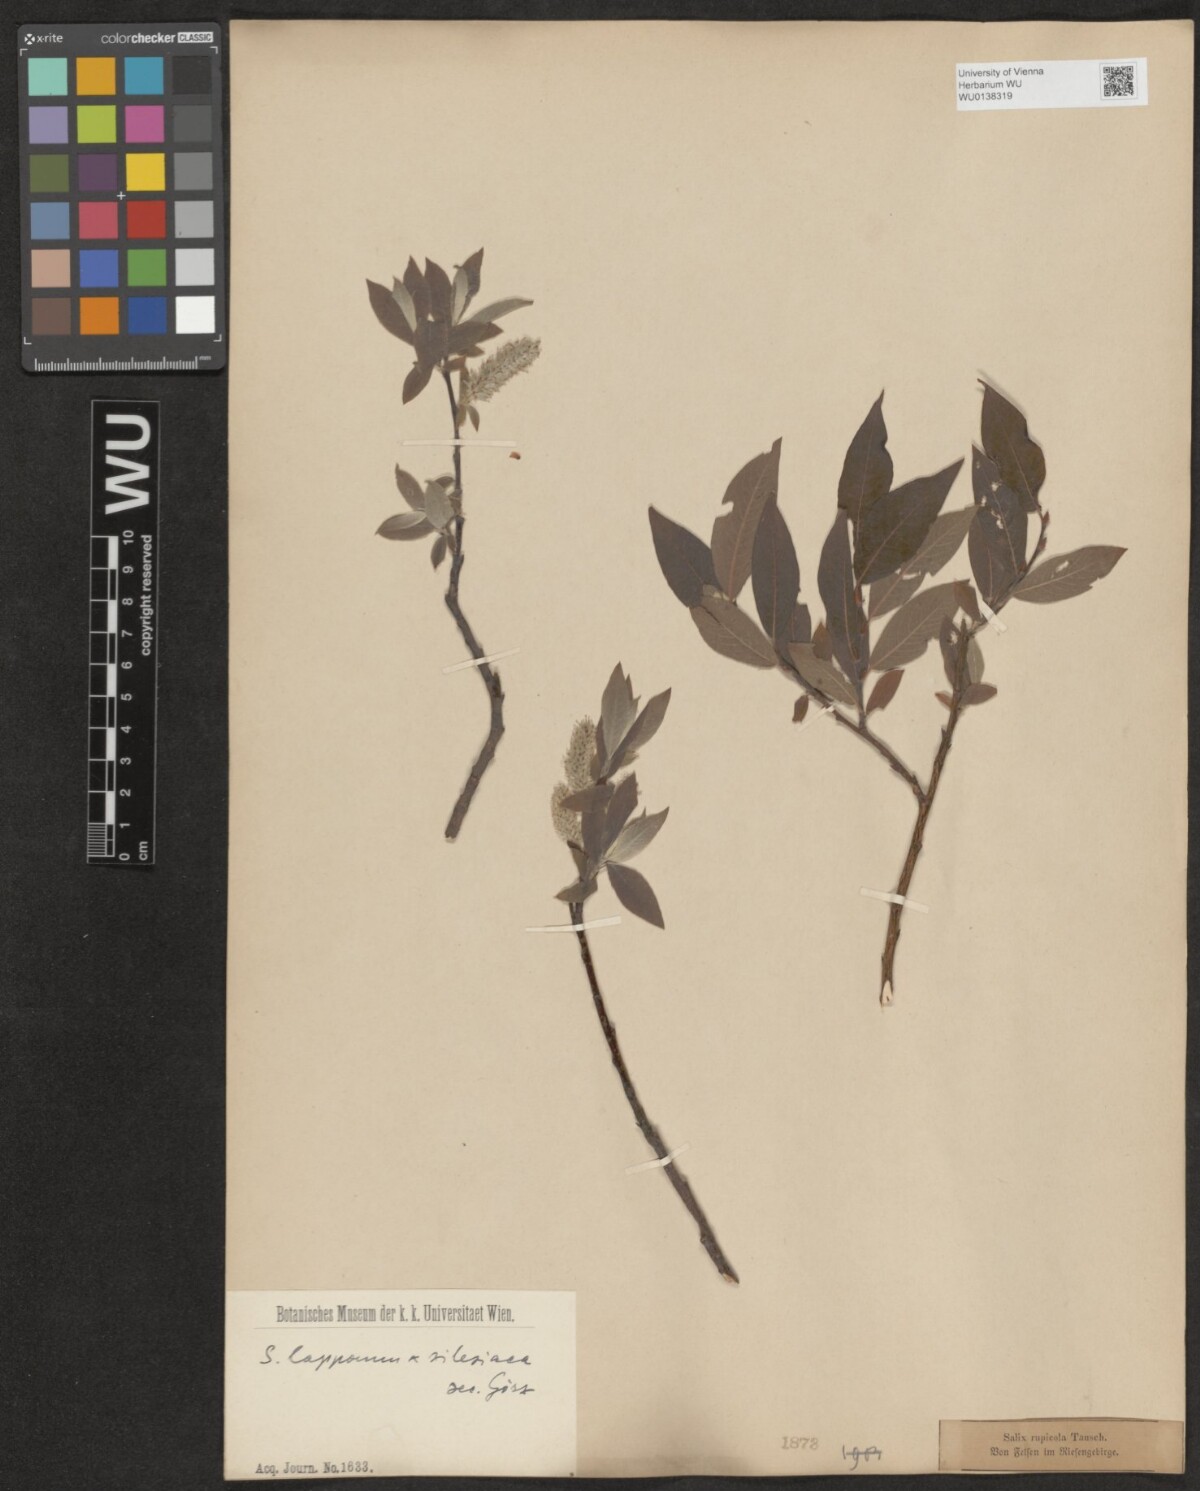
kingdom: Plantae
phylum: Tracheophyta
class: Magnoliopsida
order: Malpighiales
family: Salicaceae
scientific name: Salicaceae
